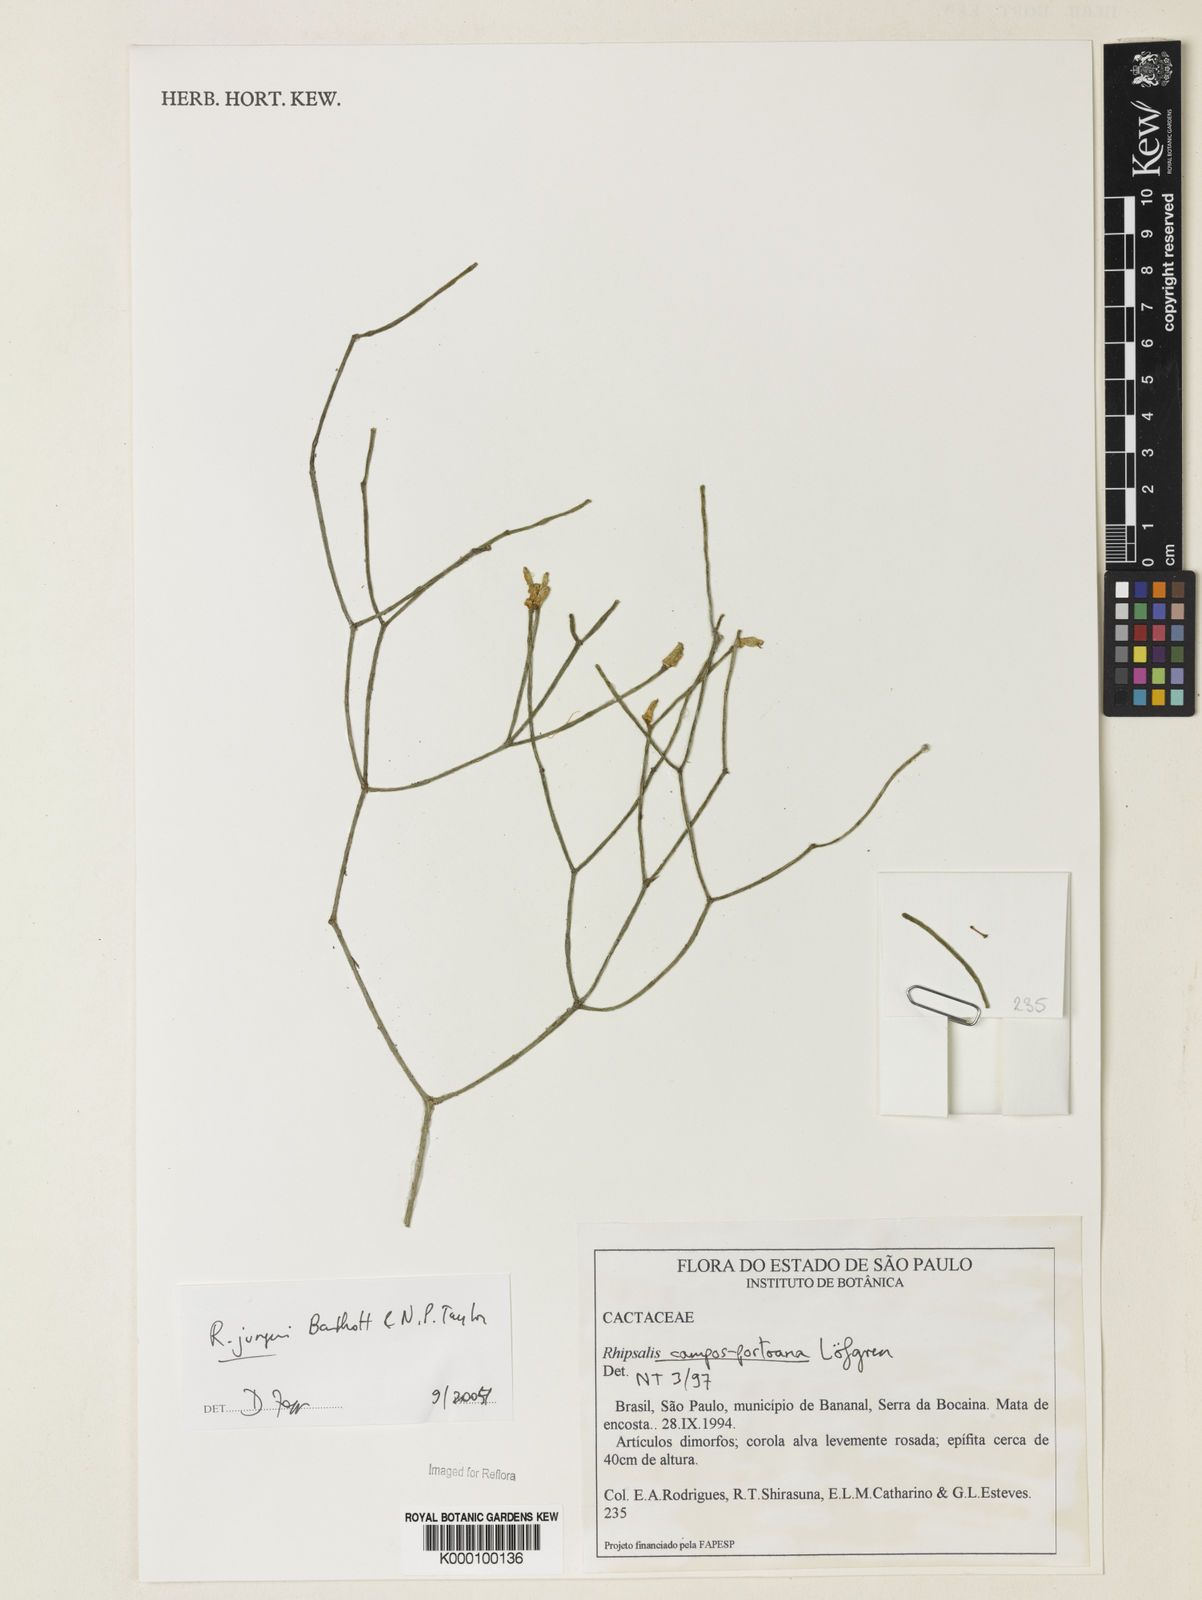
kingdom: Plantae
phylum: Tracheophyta
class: Magnoliopsida
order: Caryophyllales
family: Cactaceae
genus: Rhipsalis
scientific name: Rhipsalis juengeri
